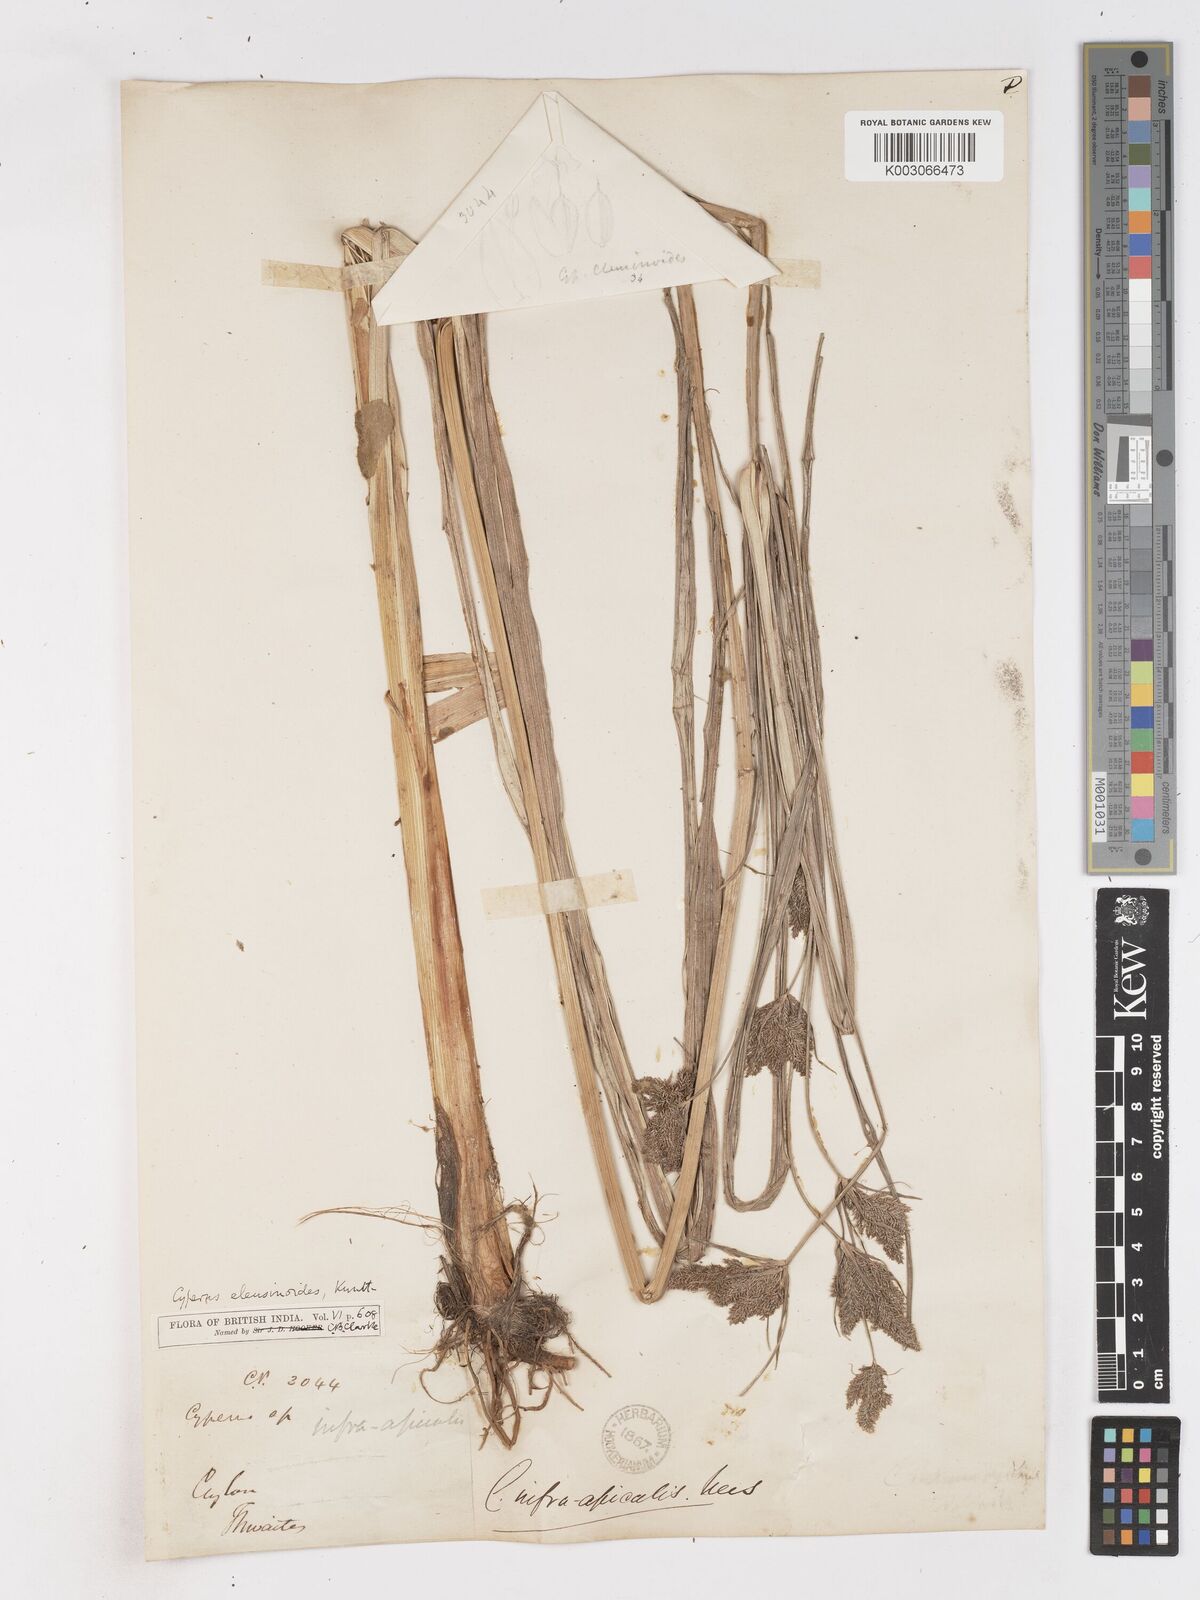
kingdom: Plantae
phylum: Tracheophyta
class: Liliopsida
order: Poales
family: Cyperaceae
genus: Cyperus
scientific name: Cyperus nutans
